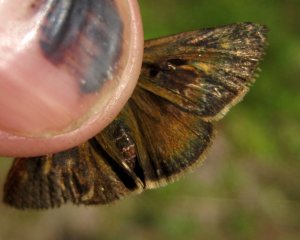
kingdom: Animalia
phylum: Arthropoda
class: Insecta
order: Lepidoptera
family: Hesperiidae
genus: Polites
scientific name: Polites egeremet
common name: Northern Broken-Dash
